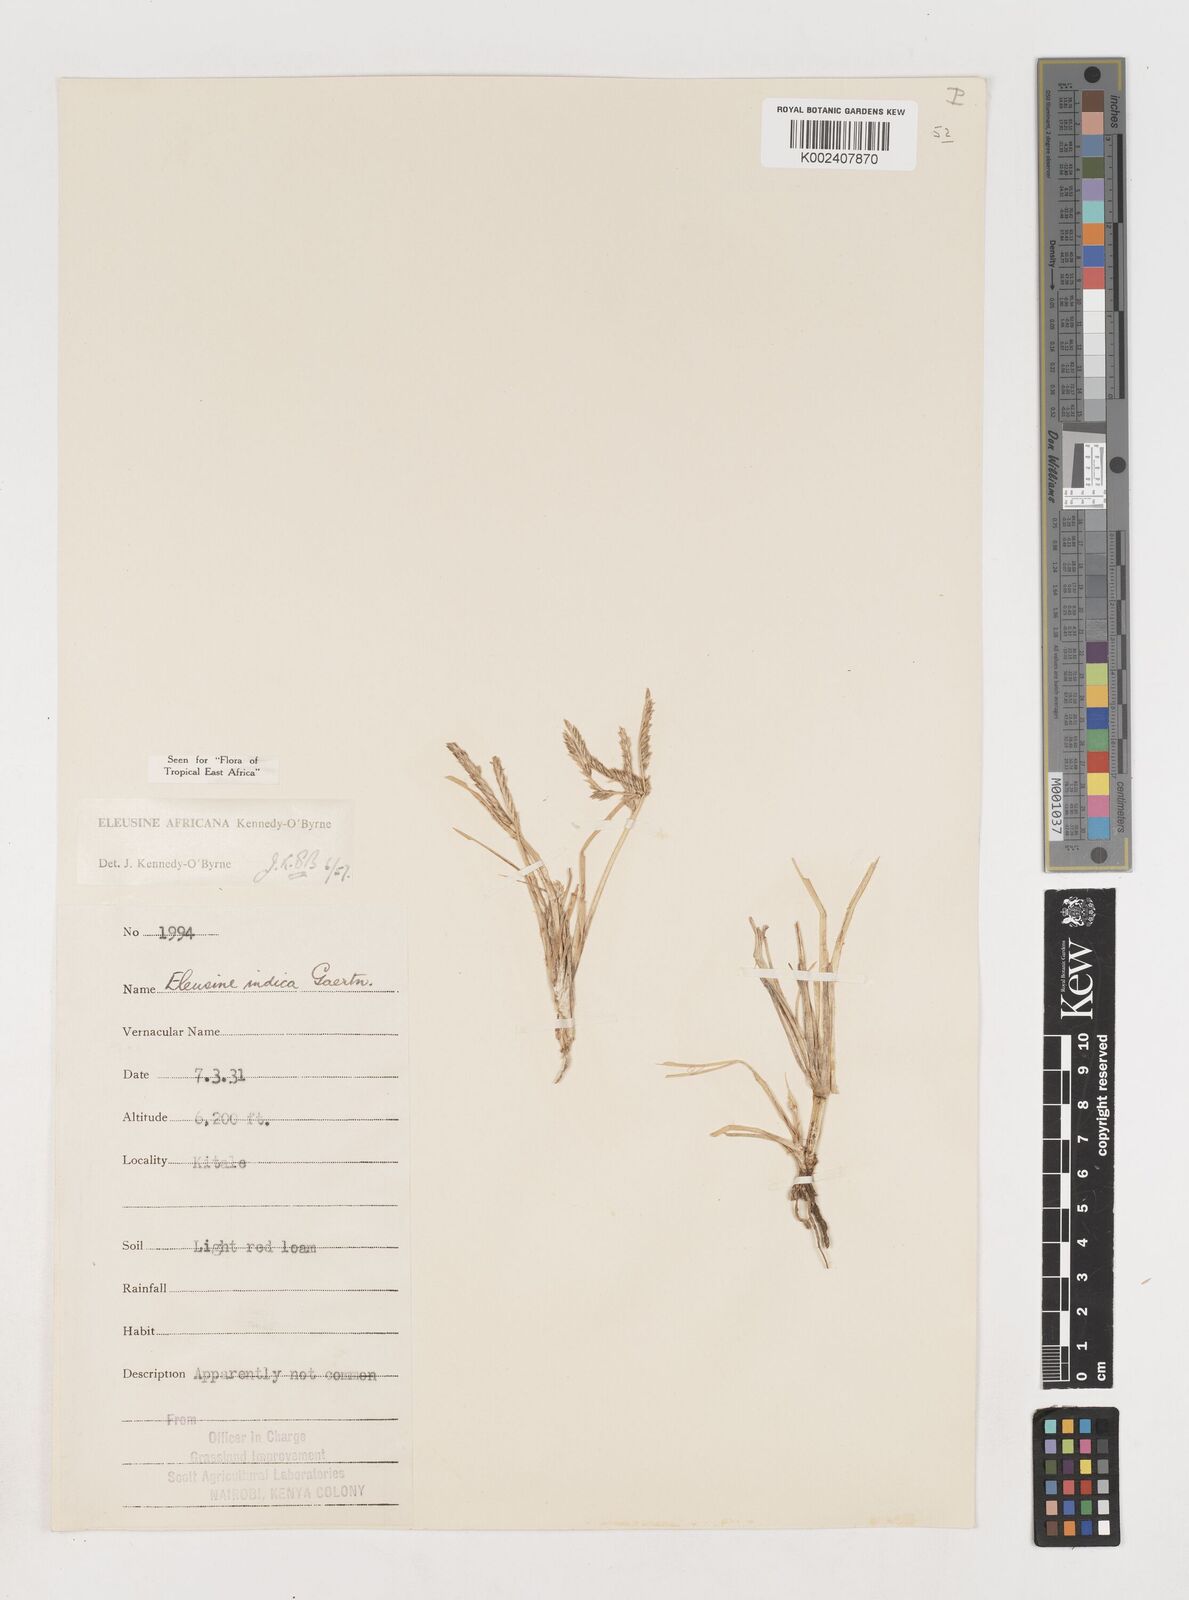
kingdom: Plantae
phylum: Tracheophyta
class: Liliopsida
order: Poales
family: Poaceae
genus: Eleusine
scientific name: Eleusine africana
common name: Wild african finger millet
